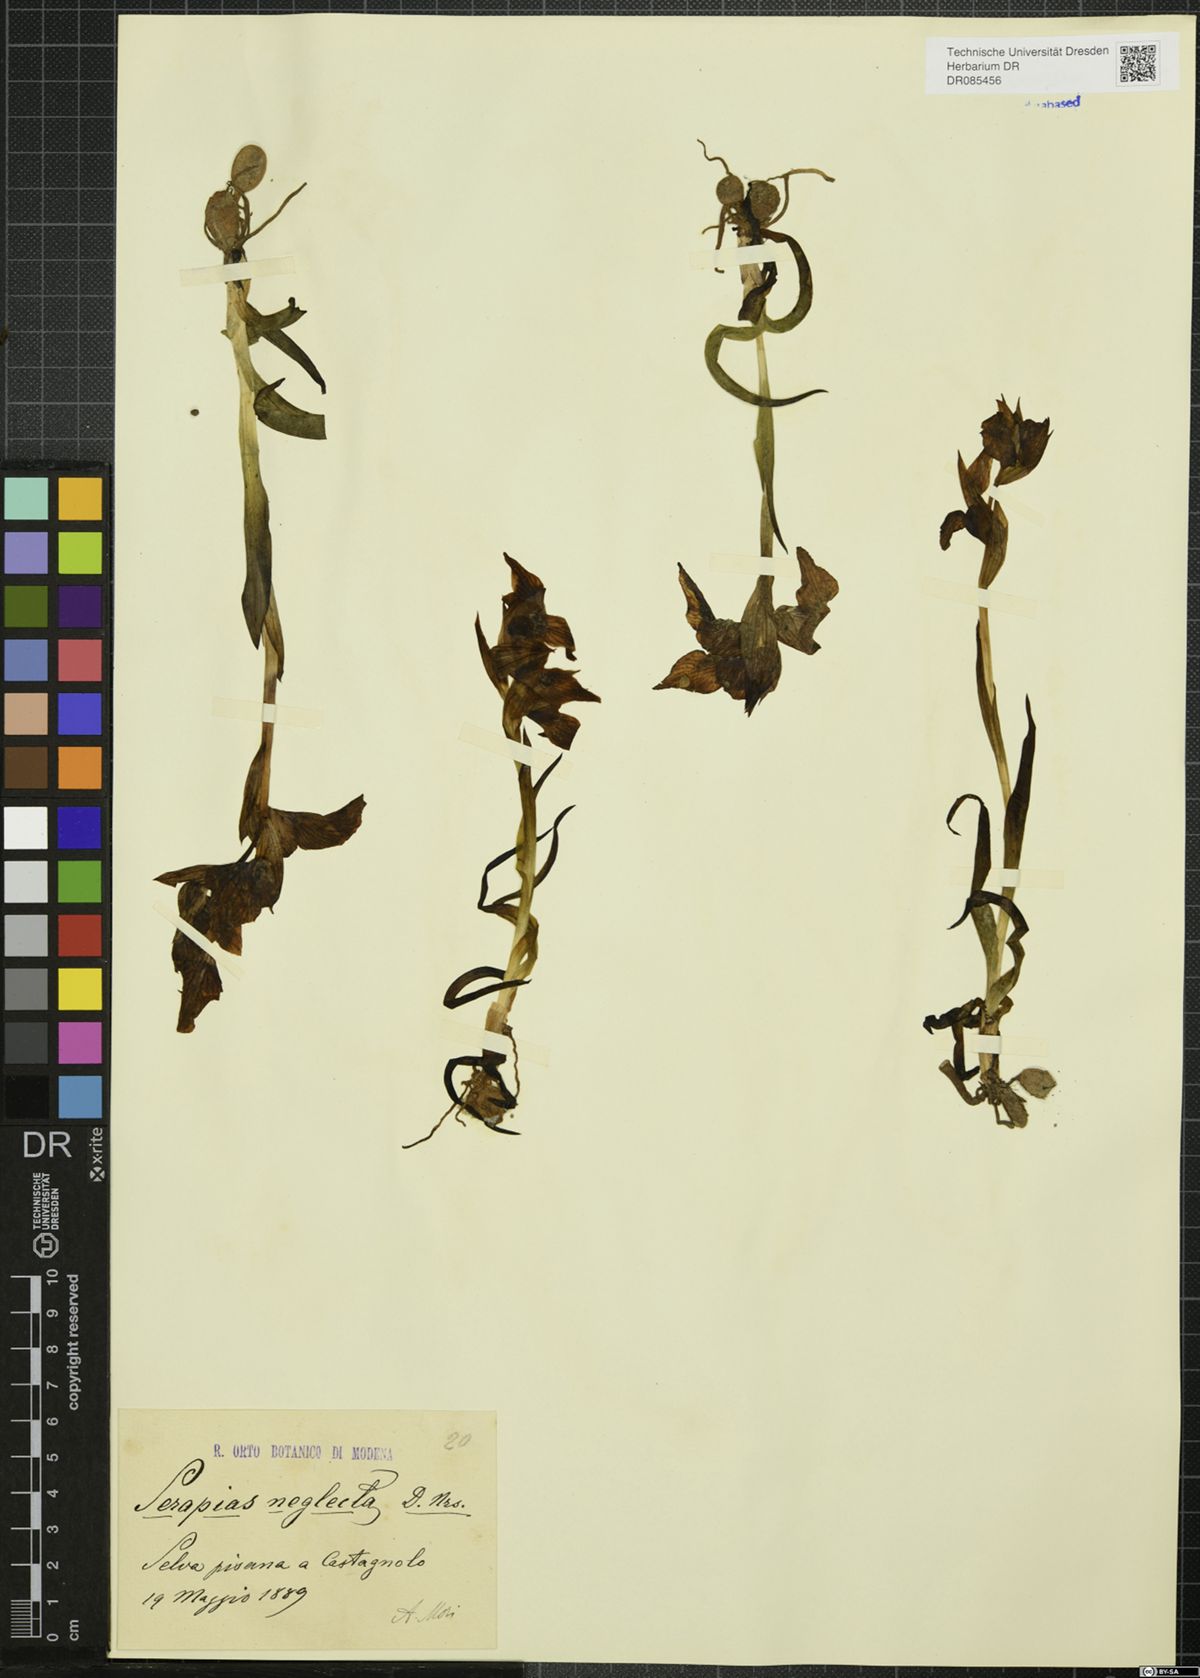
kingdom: Plantae
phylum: Tracheophyta
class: Liliopsida
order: Asparagales
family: Orchidaceae
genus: Serapias
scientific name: Serapias neglecta
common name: Neglected serapias
